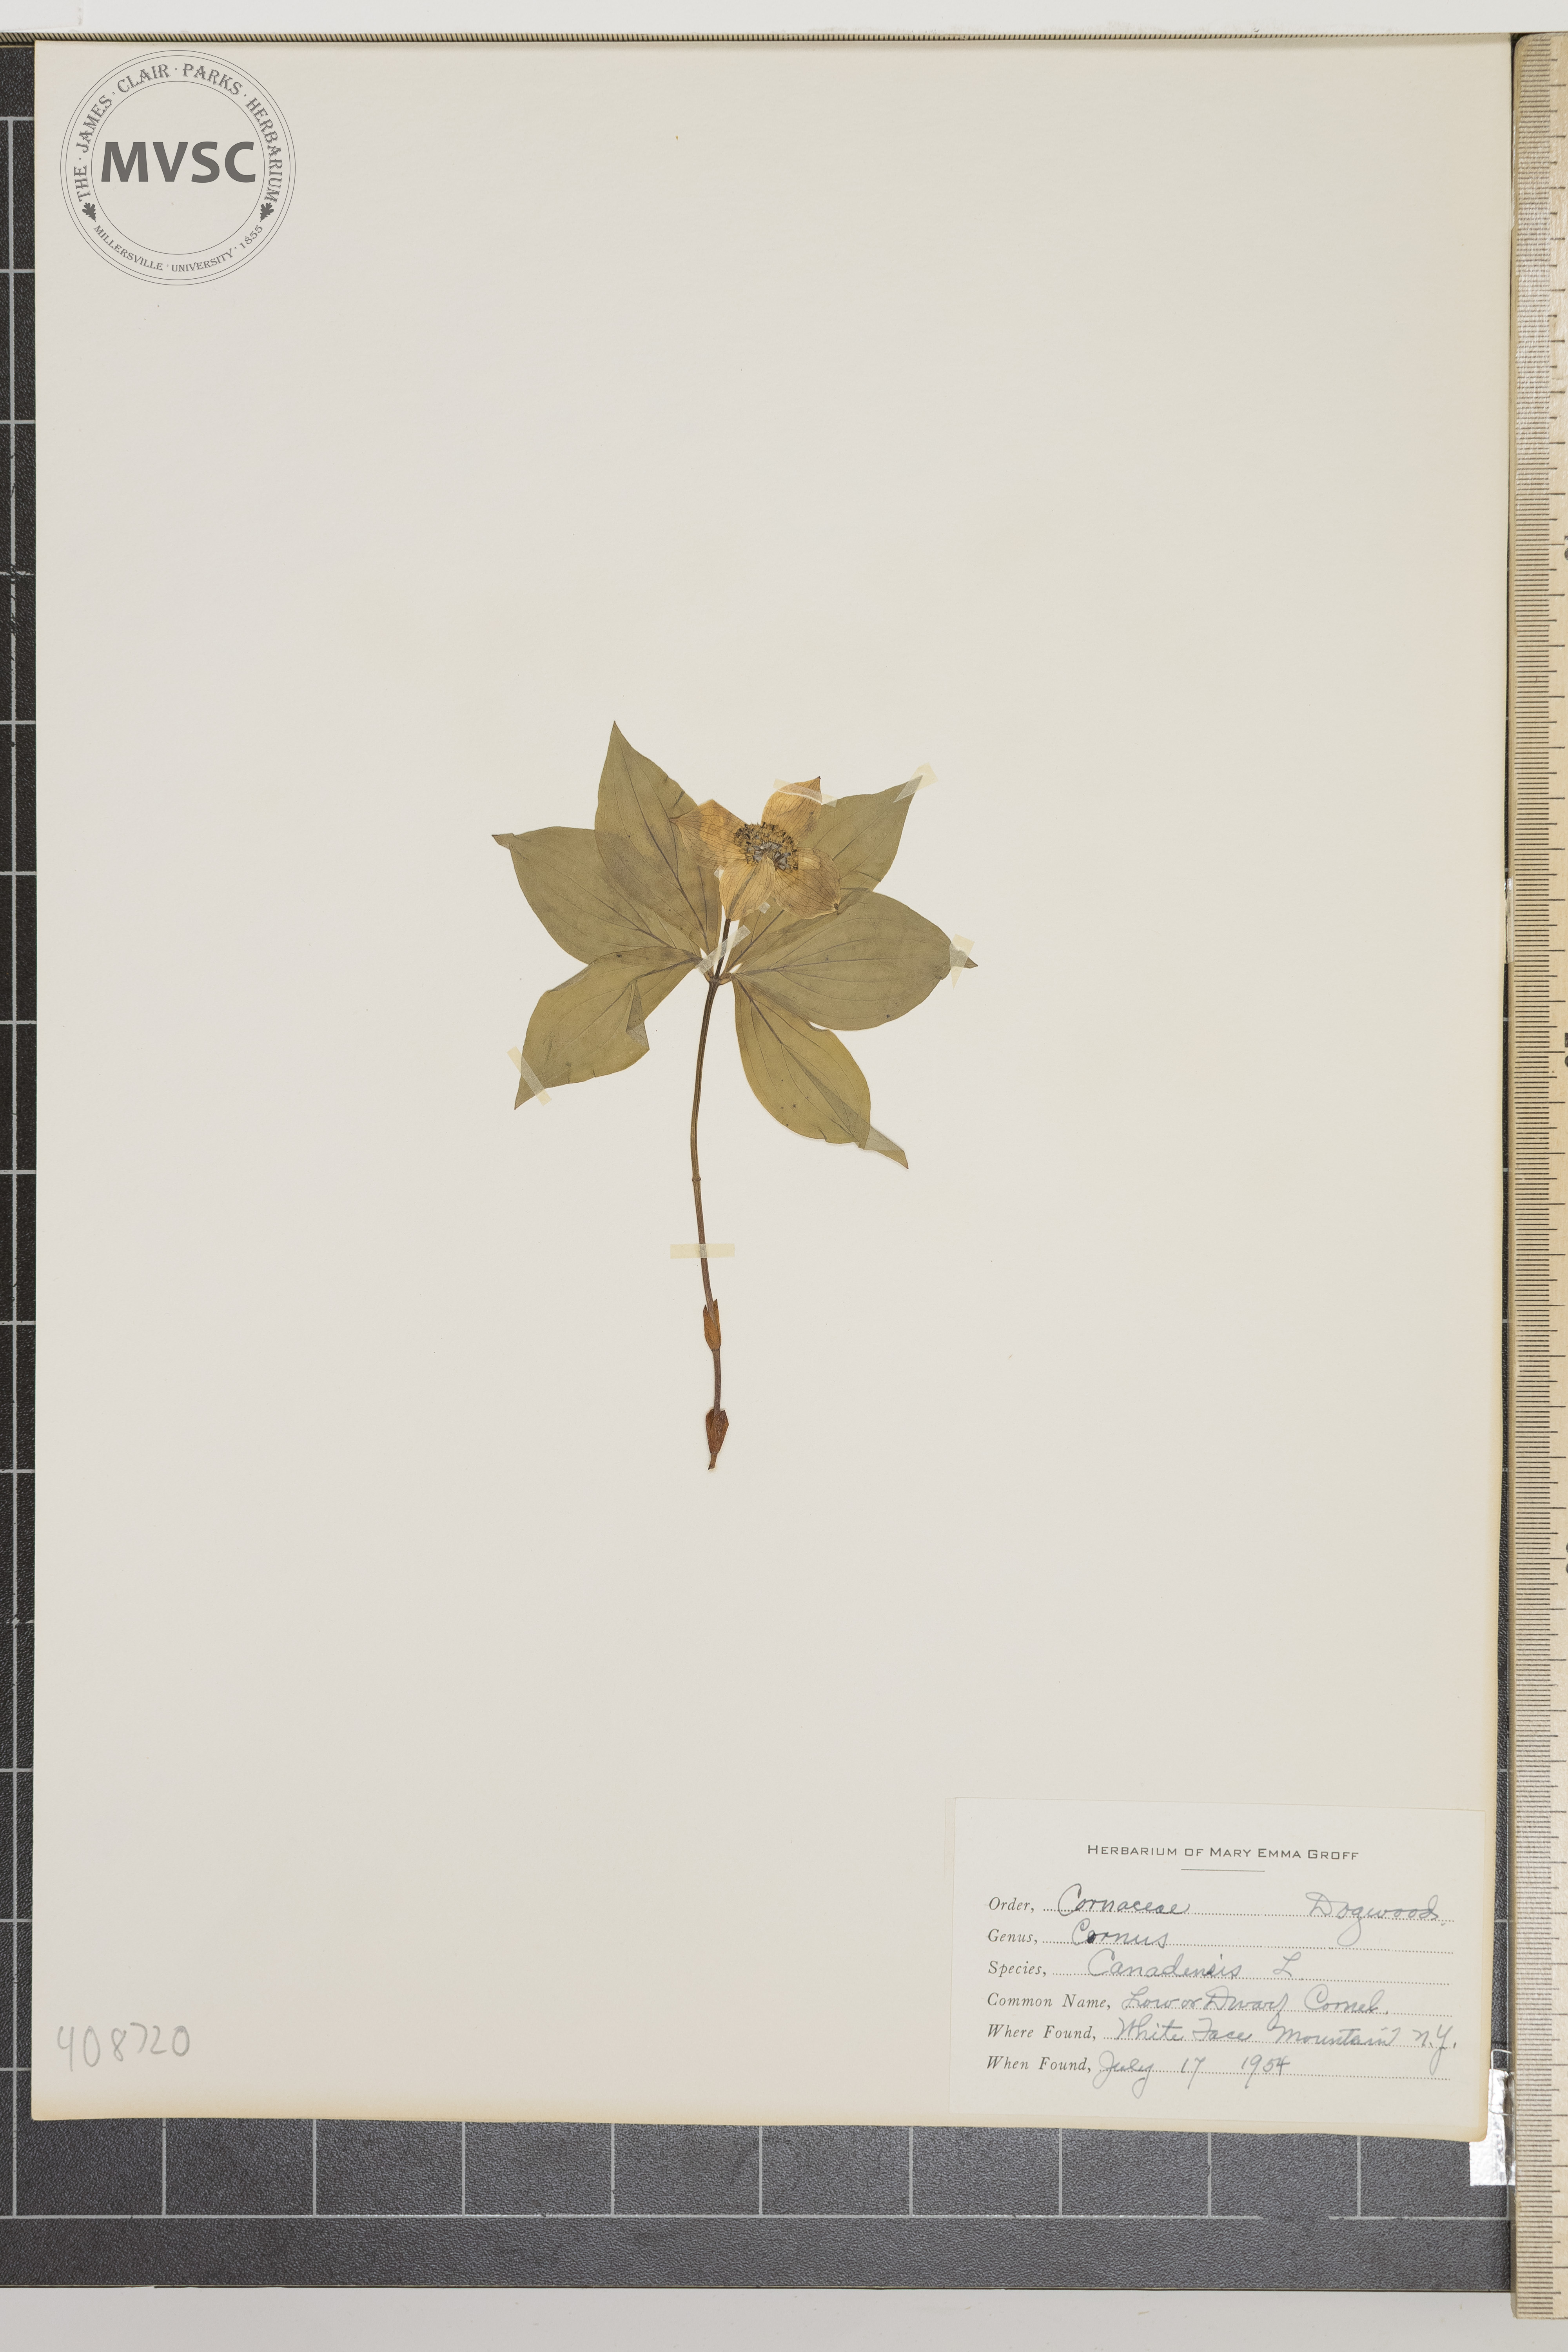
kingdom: Plantae
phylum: Tracheophyta
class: Magnoliopsida
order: Cornales
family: Cornaceae
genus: Cornus
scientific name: Cornus canadensis
